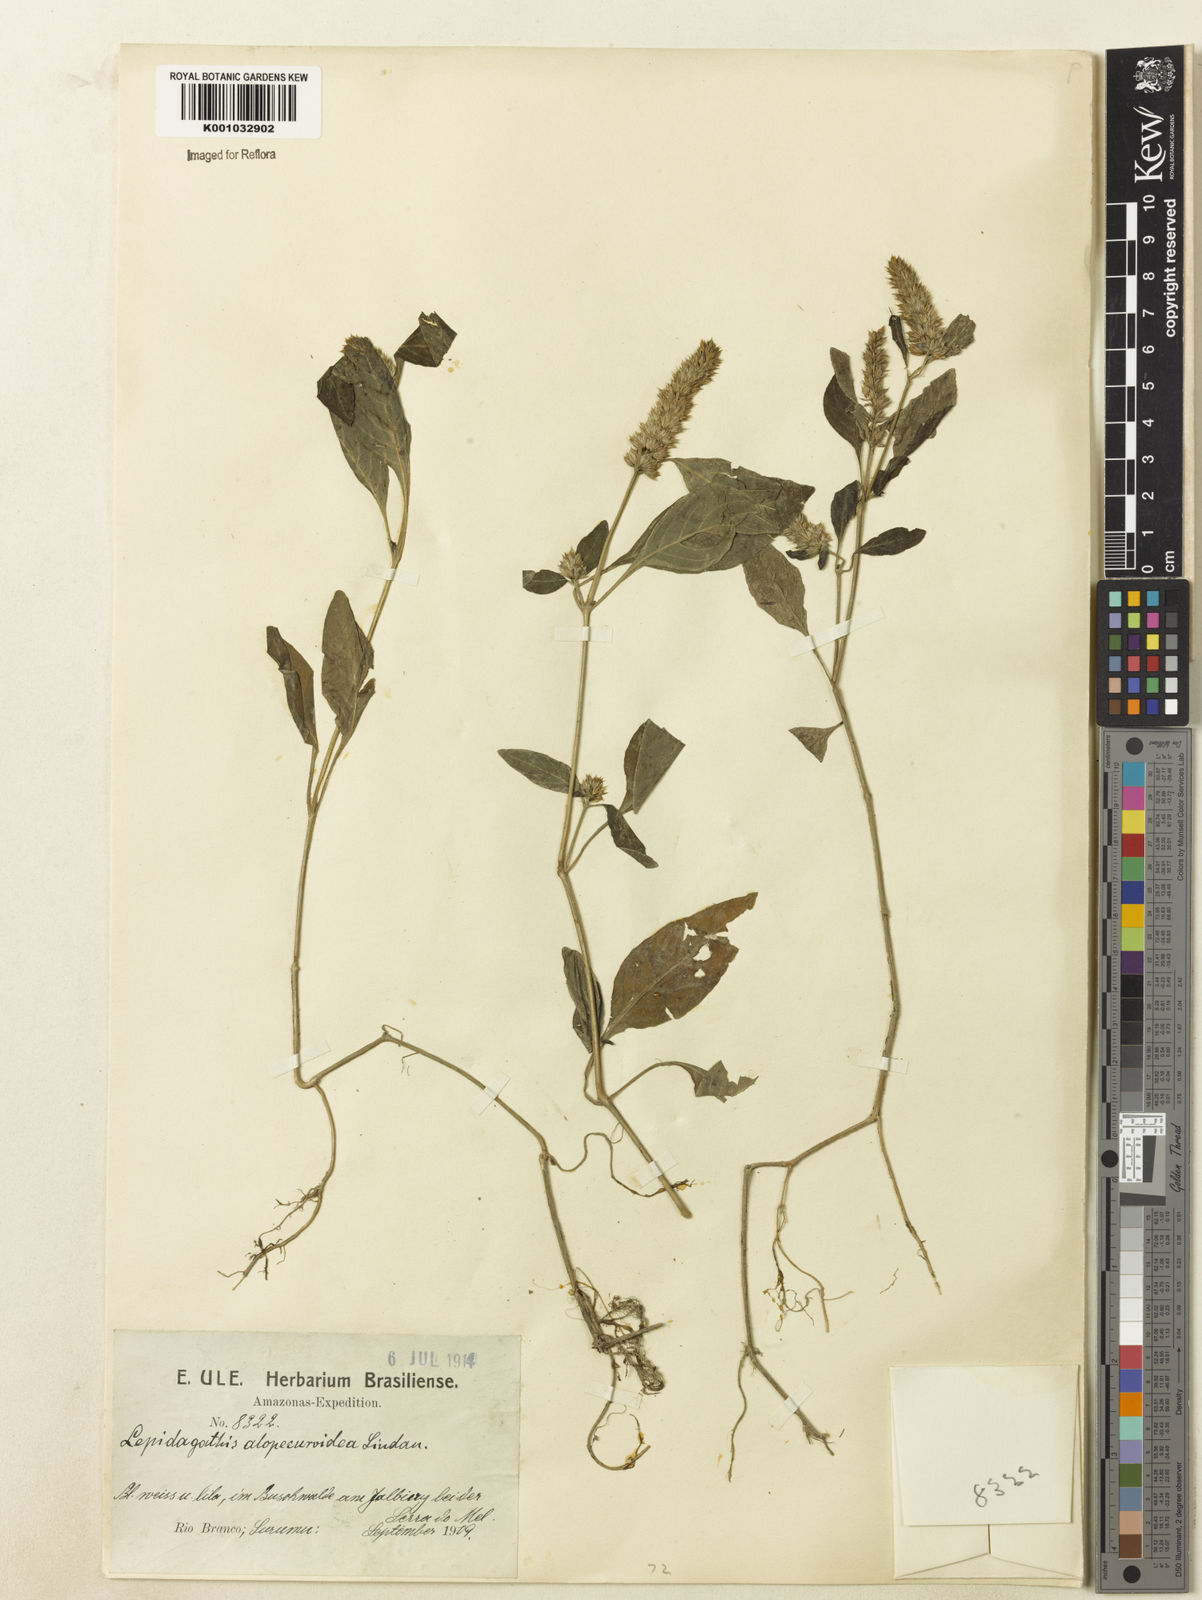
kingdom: Plantae
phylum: Tracheophyta
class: Magnoliopsida
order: Lamiales
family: Acanthaceae
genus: Lepidagathis
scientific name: Lepidagathis alopecuroidea
